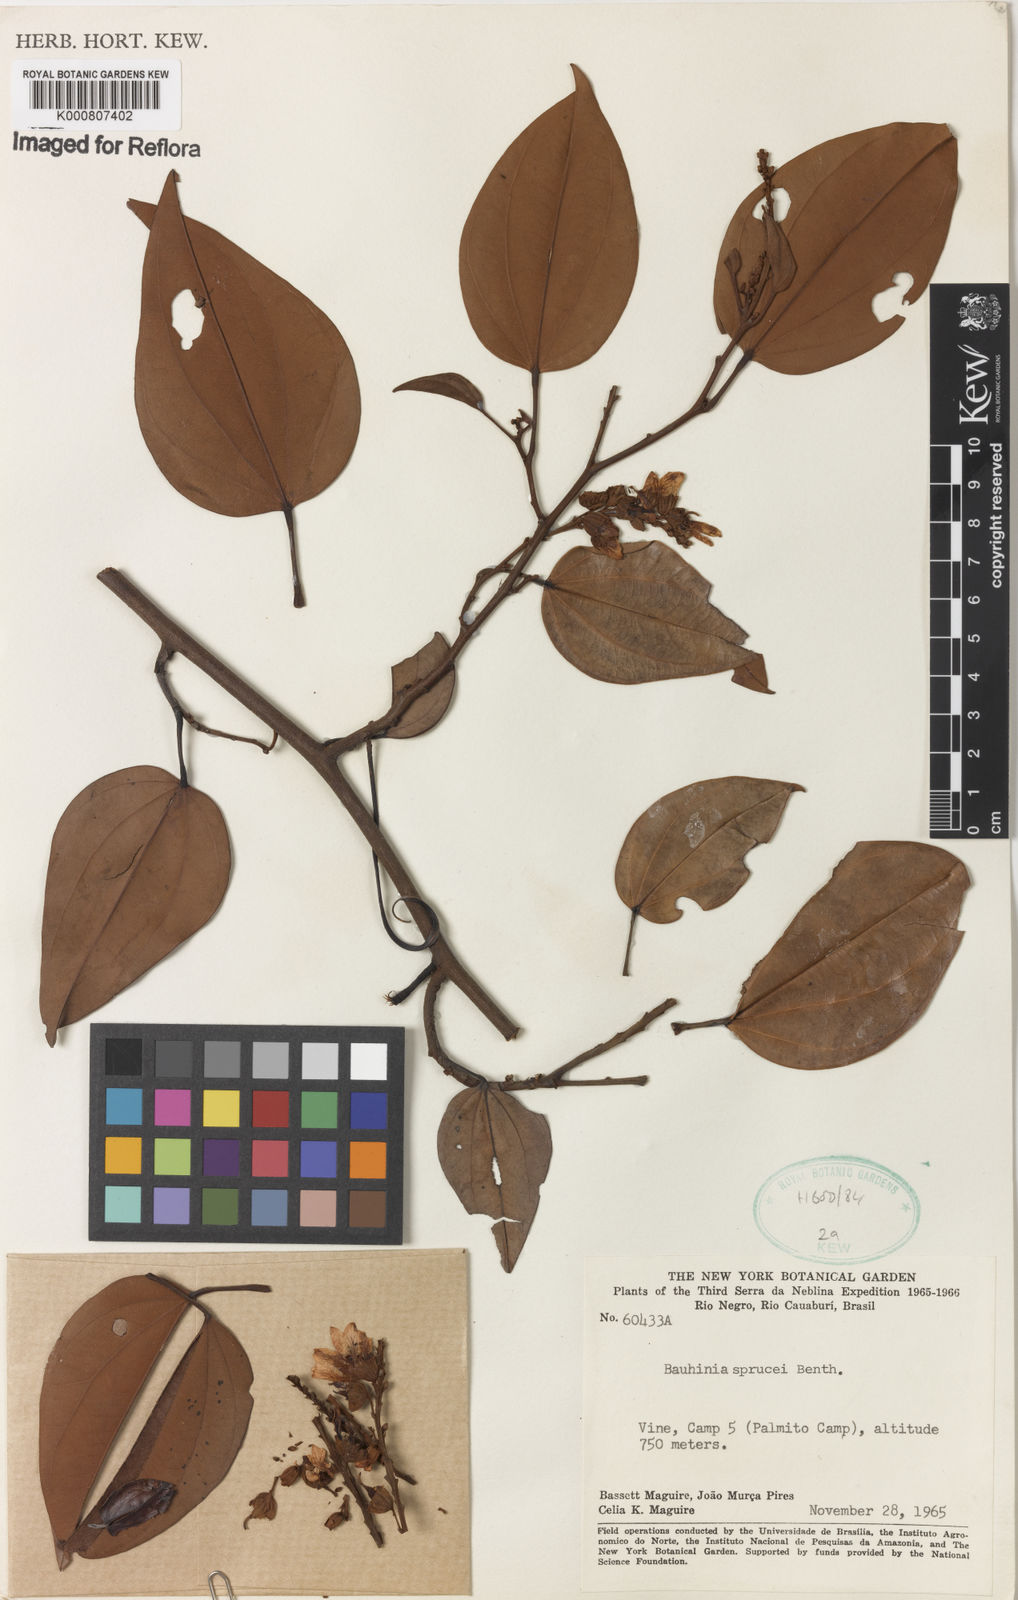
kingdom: Plantae
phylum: Tracheophyta
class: Magnoliopsida
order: Fabales
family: Fabaceae
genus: Schnella
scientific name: Schnella sprucei
